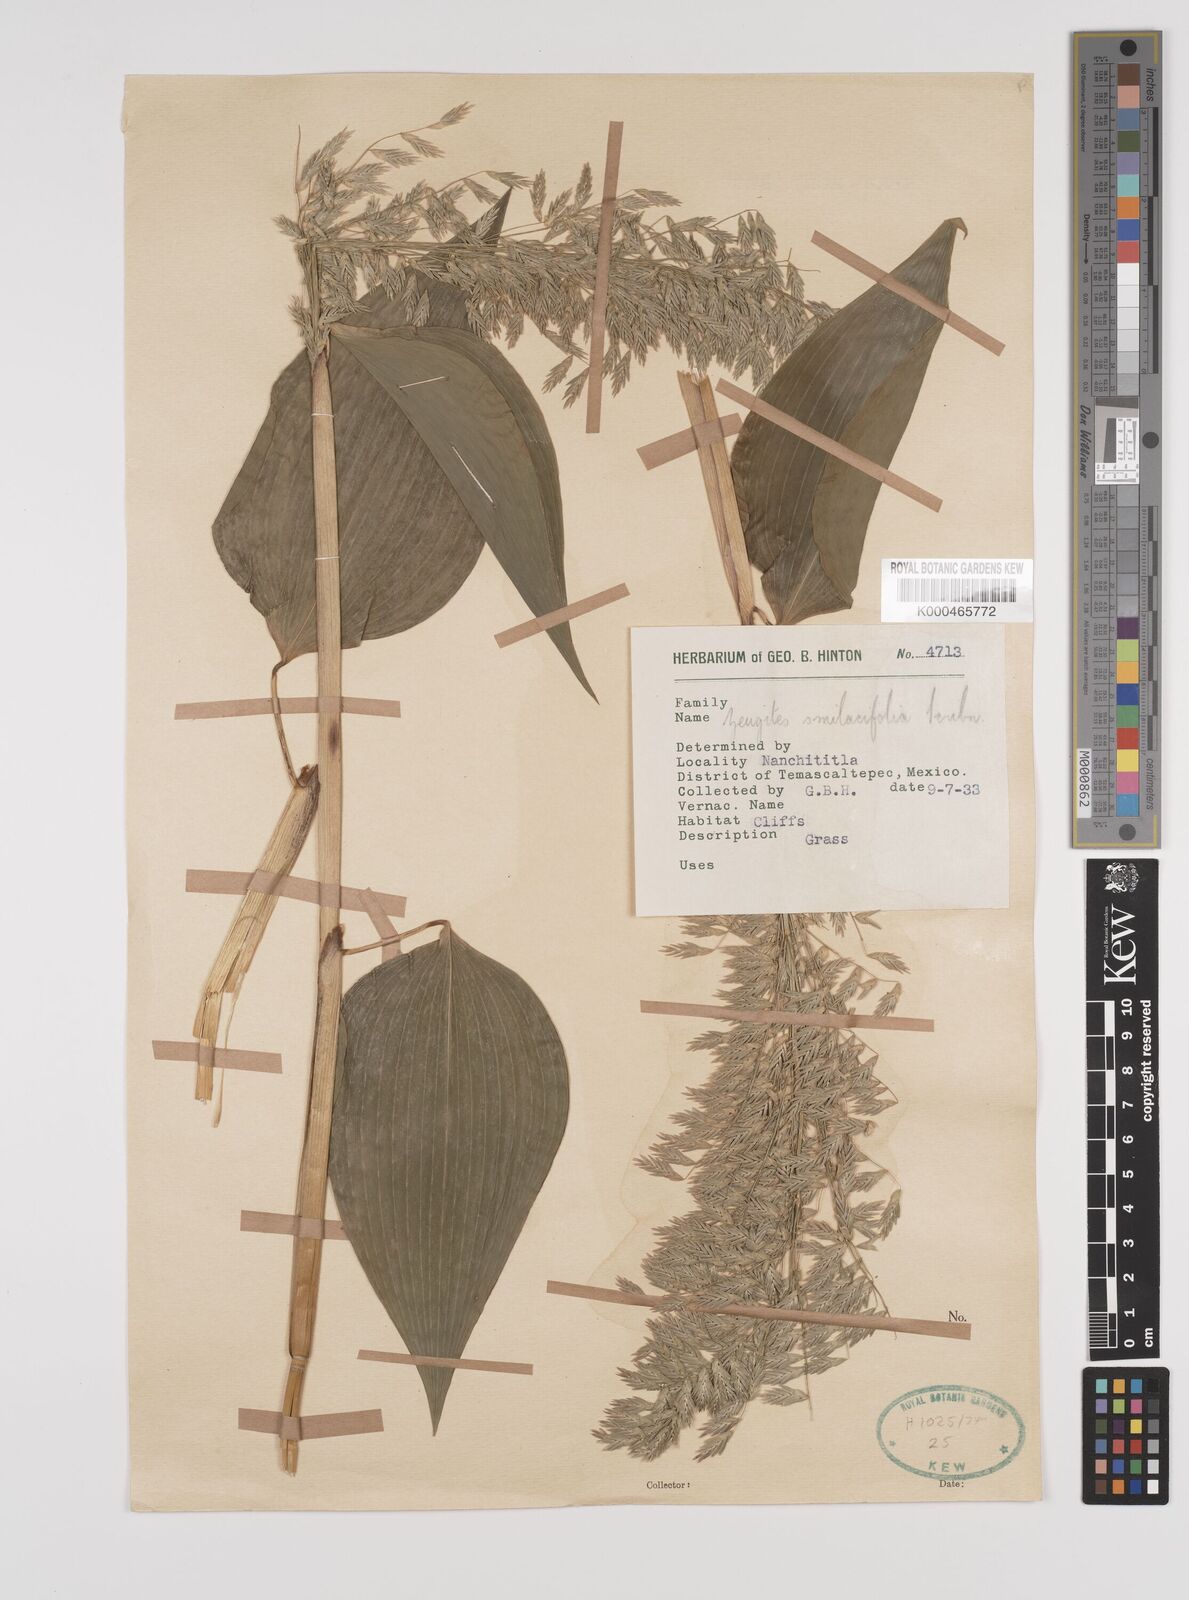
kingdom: Plantae
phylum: Tracheophyta
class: Liliopsida
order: Poales
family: Poaceae
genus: Zeugites
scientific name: Zeugites smilacifolius
